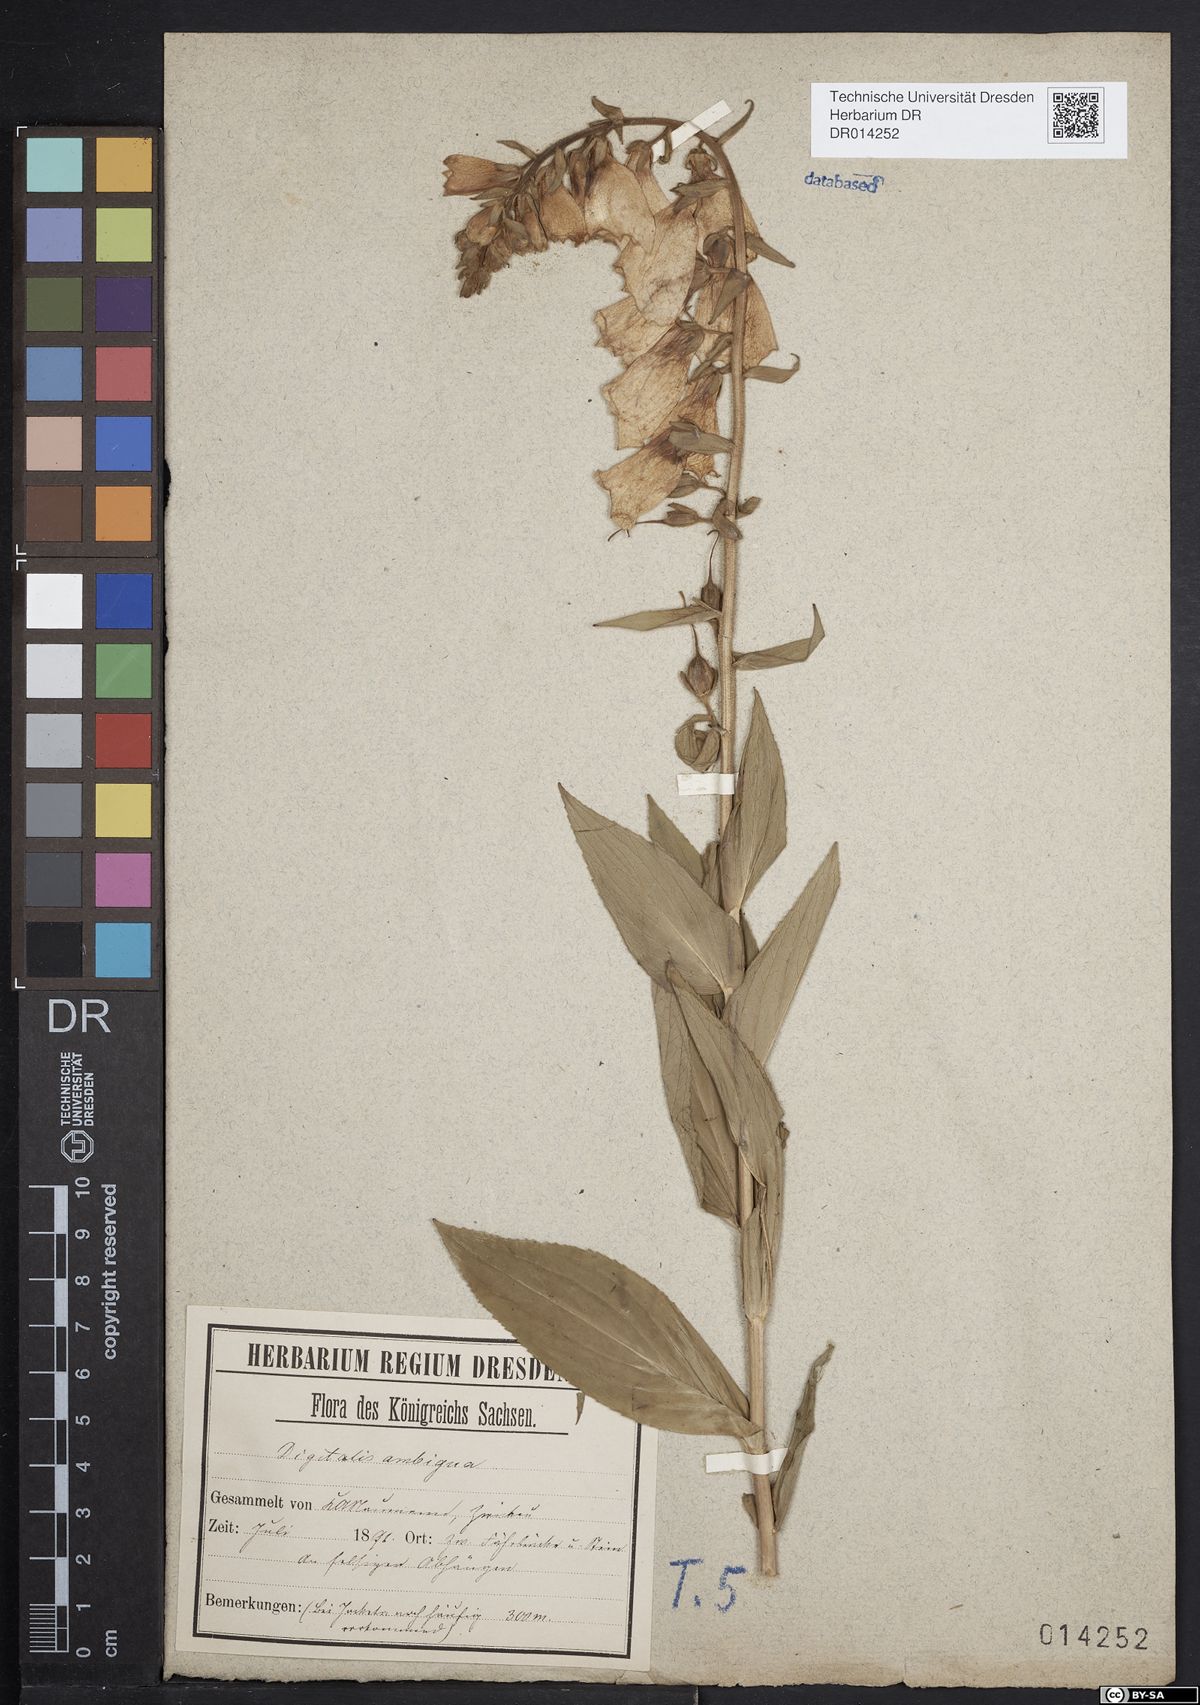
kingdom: Plantae
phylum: Tracheophyta
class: Magnoliopsida
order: Lamiales
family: Plantaginaceae
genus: Digitalis
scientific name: Digitalis grandiflora
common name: Yellow foxglove
